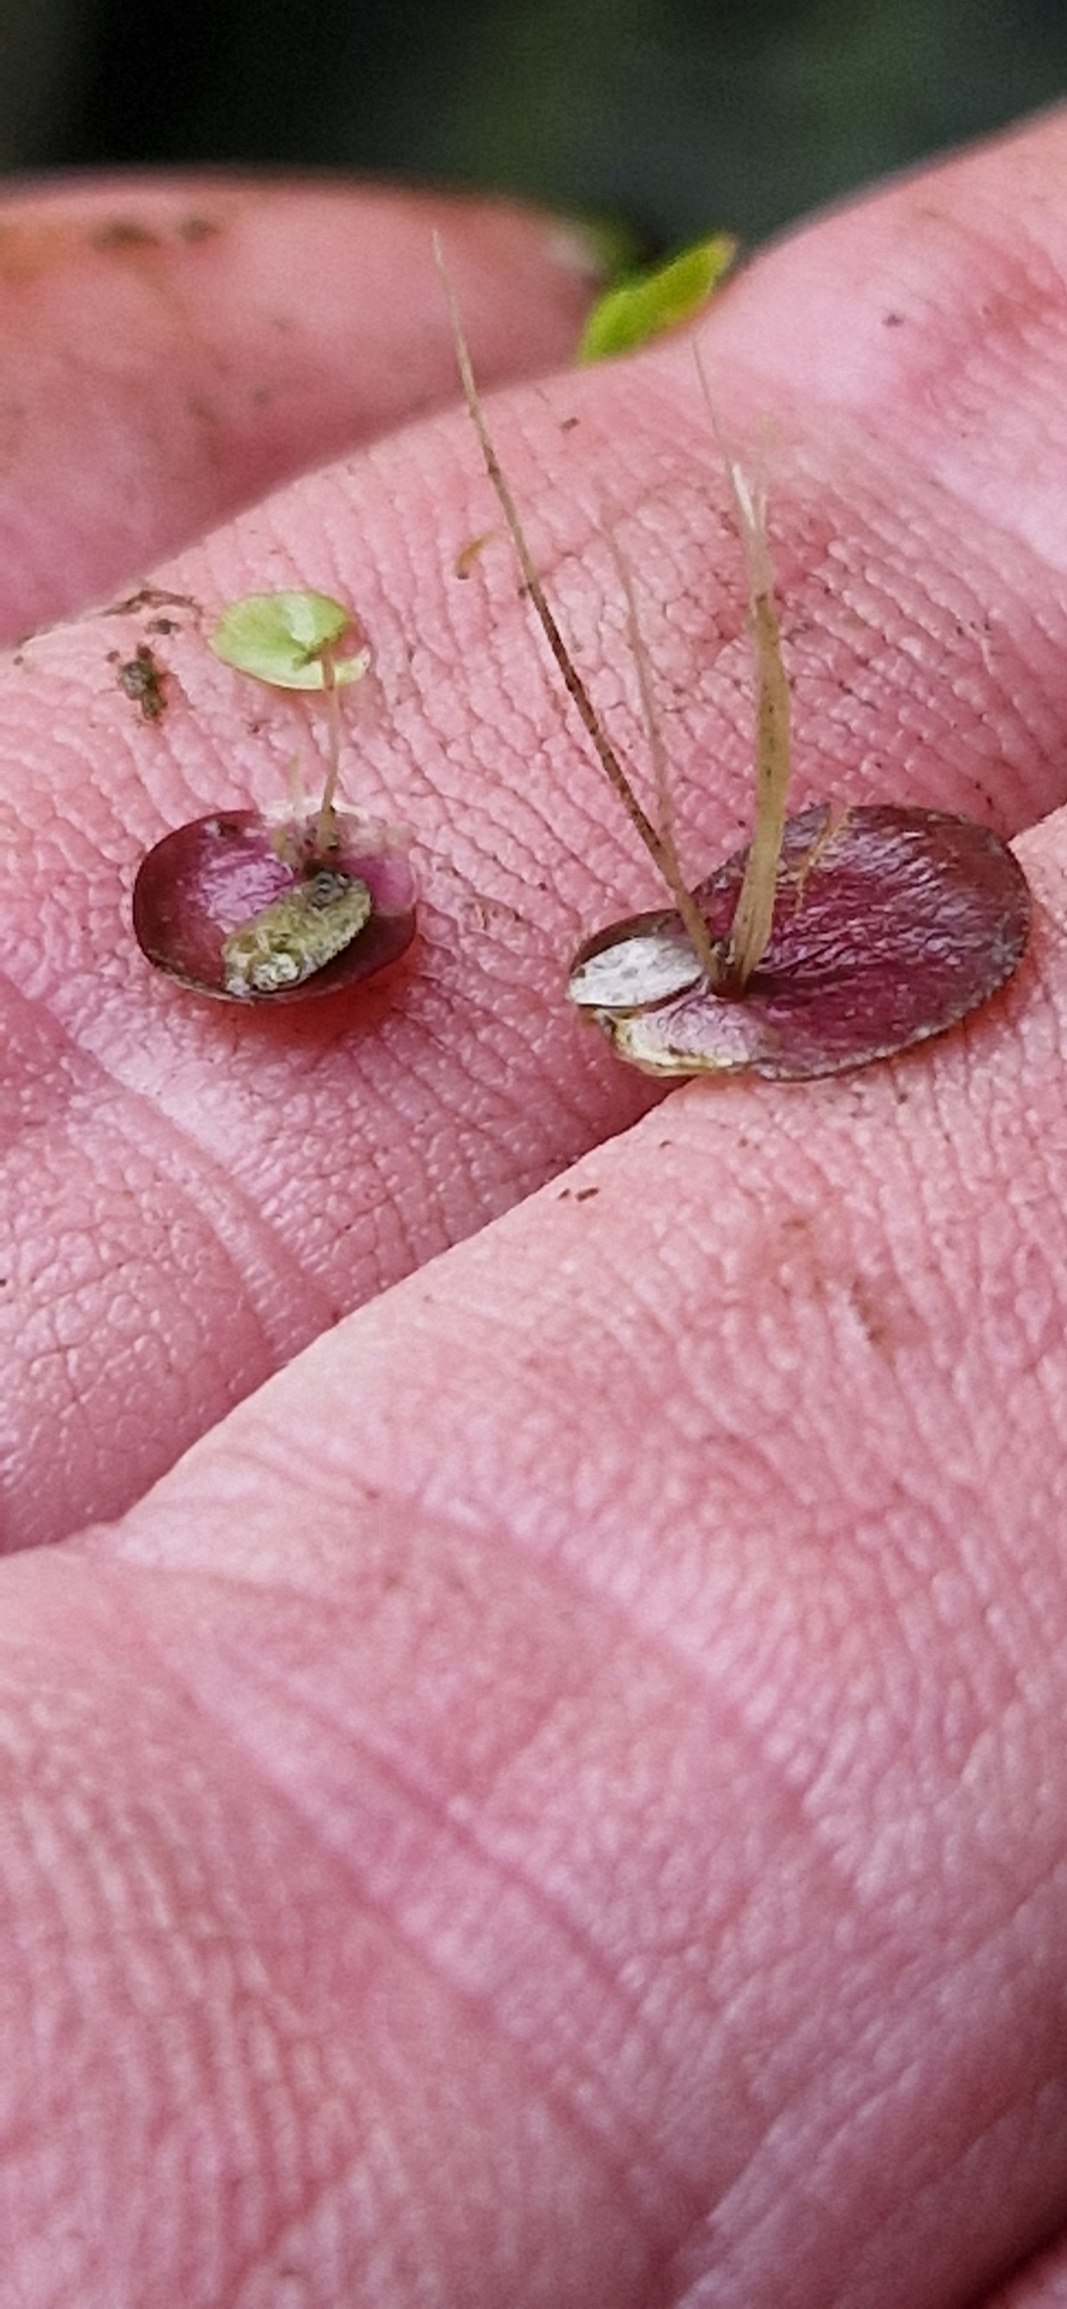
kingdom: Plantae
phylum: Tracheophyta
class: Liliopsida
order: Alismatales
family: Araceae
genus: Spirodela
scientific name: Spirodela polyrhiza
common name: Stor andemad
